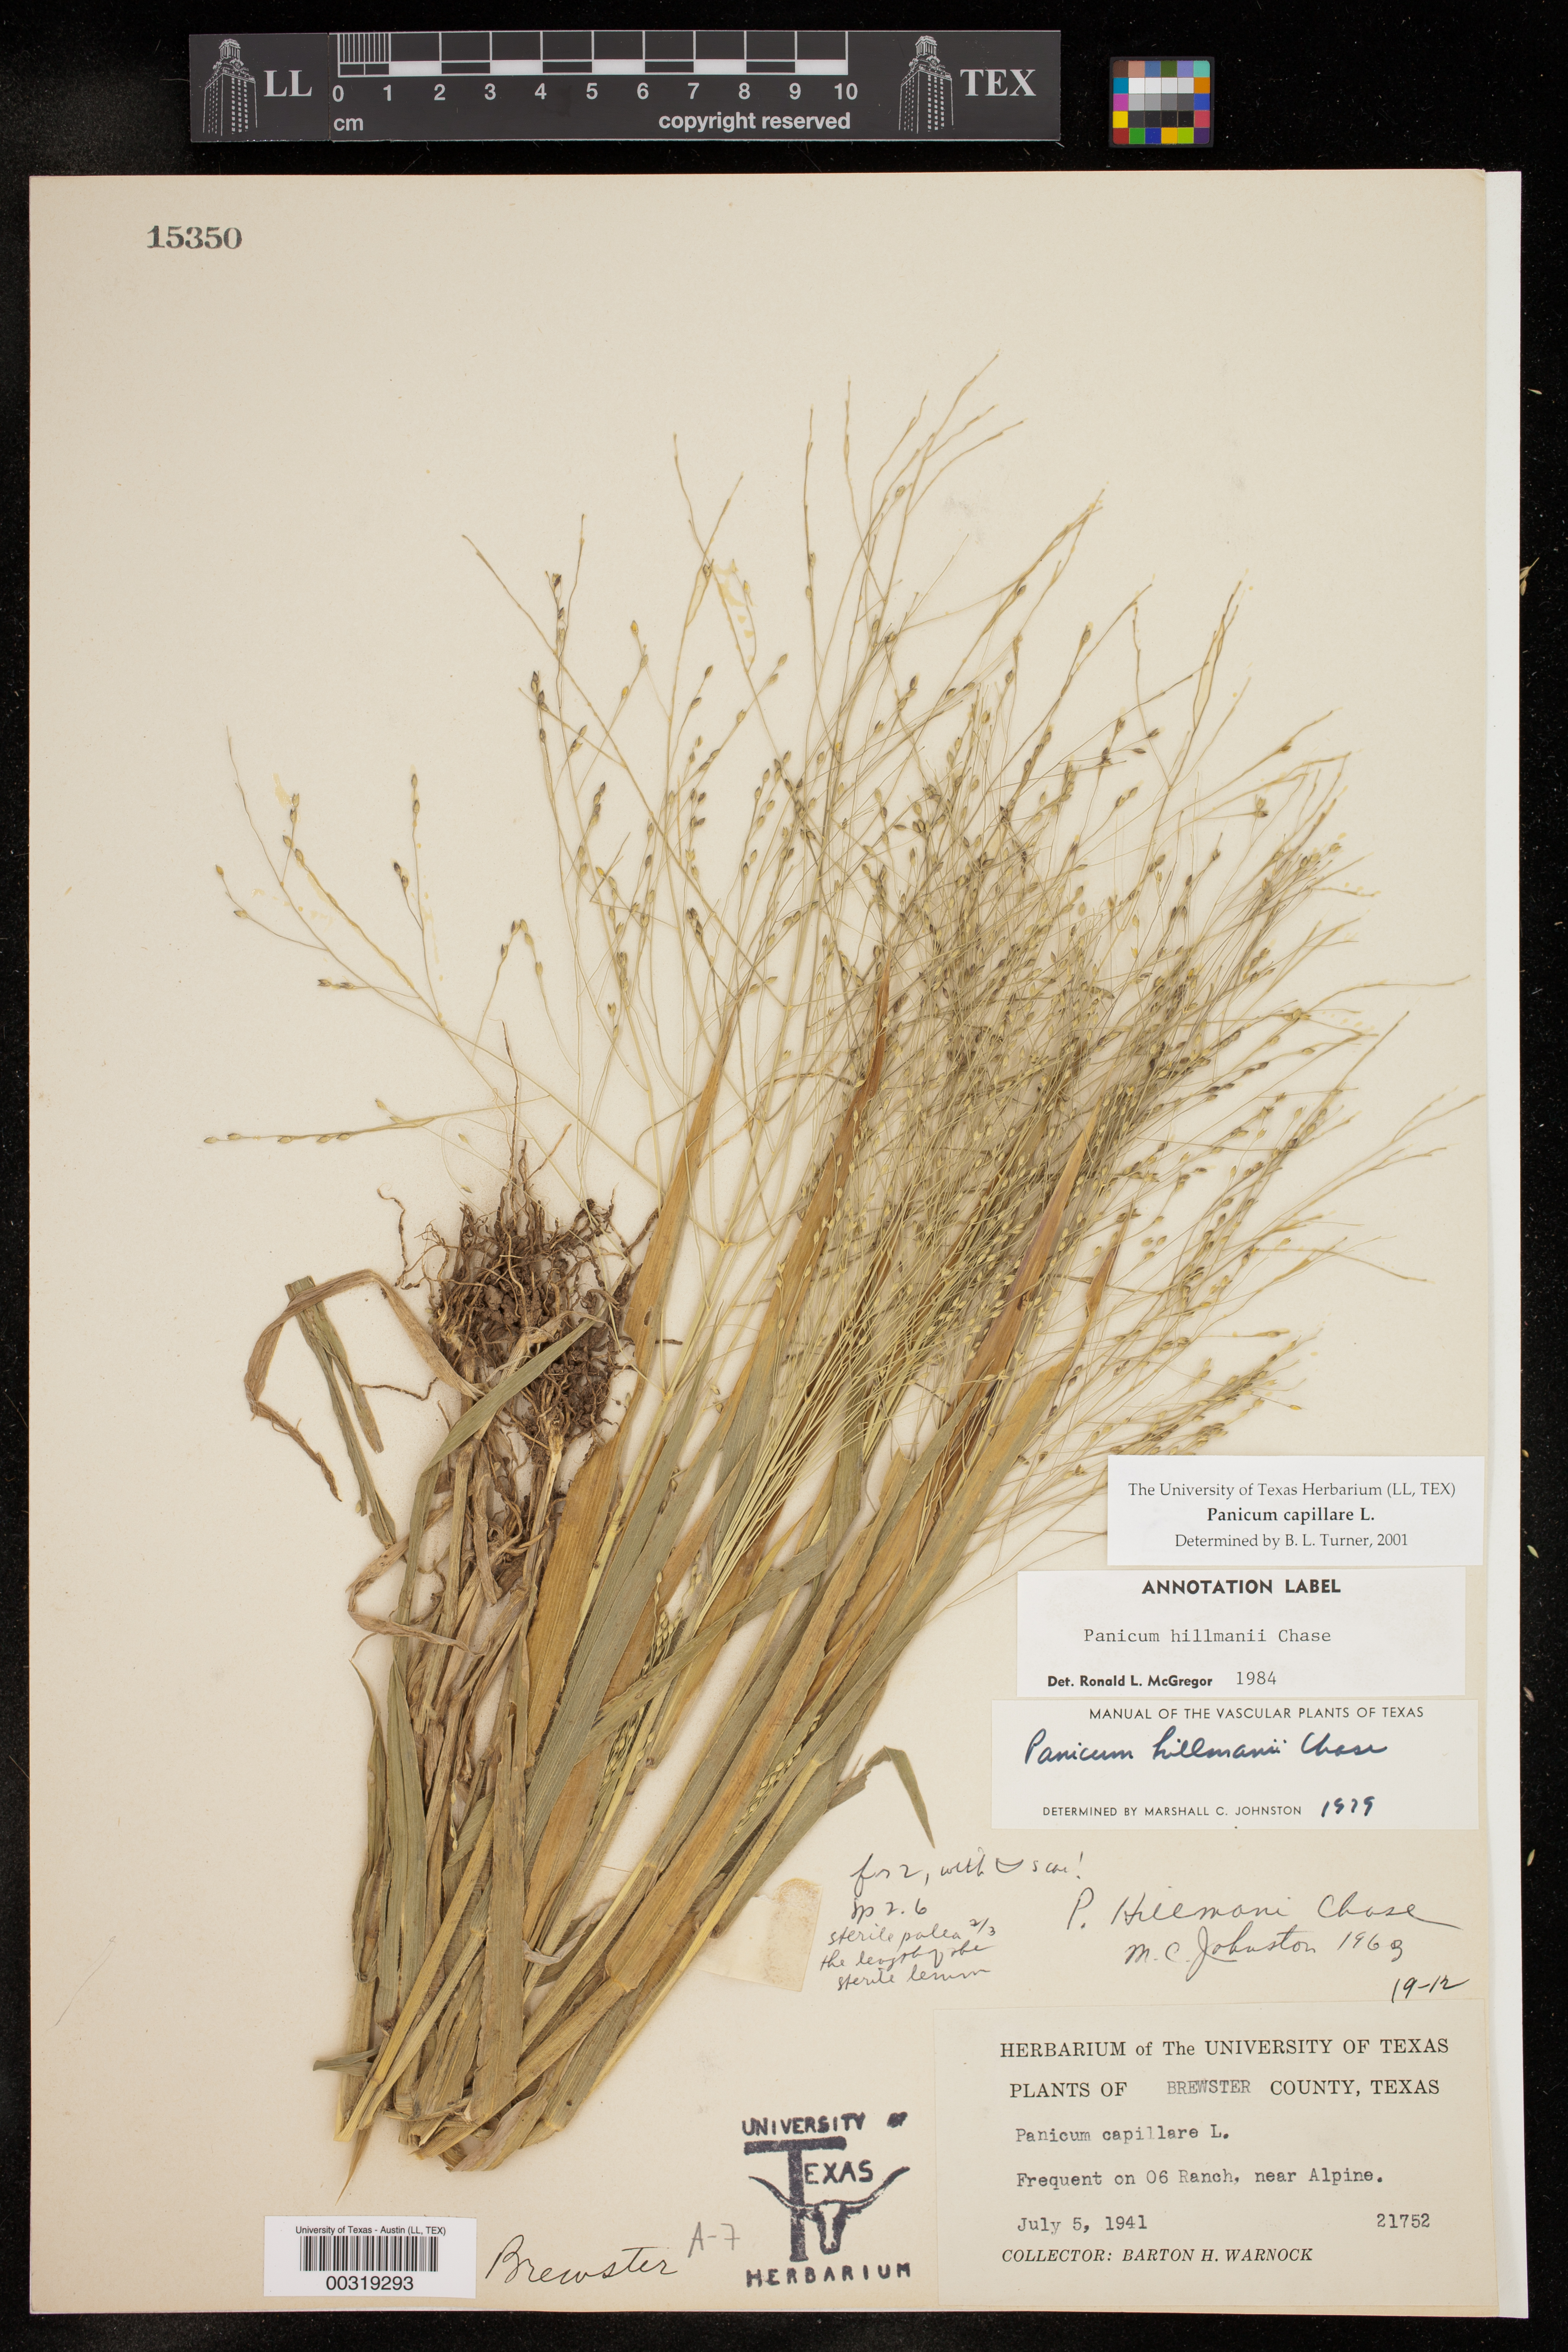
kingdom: Plantae
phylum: Tracheophyta
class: Liliopsida
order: Poales
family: Poaceae
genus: Panicum
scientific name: Panicum capillare
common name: Witch-grass
